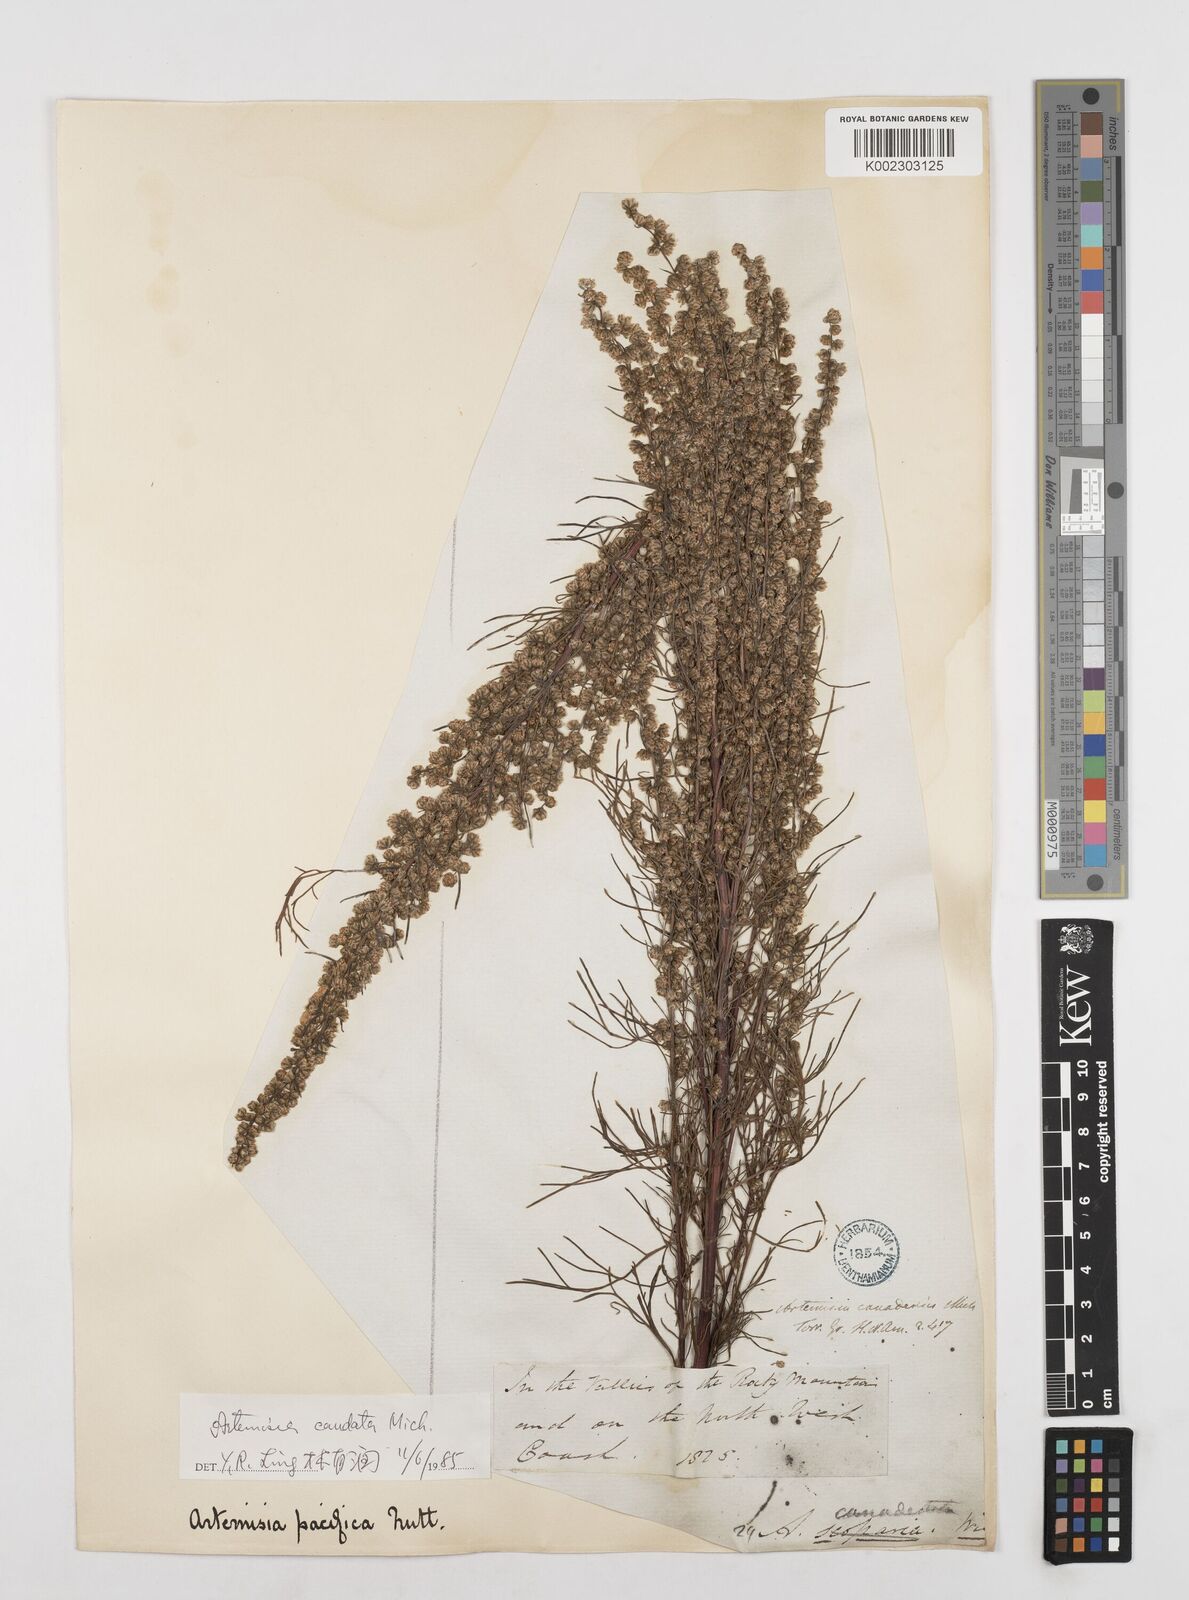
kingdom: Plantae
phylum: Tracheophyta
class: Magnoliopsida
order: Asterales
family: Asteraceae
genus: Artemisia
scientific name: Artemisia campestris
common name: Field wormwood
